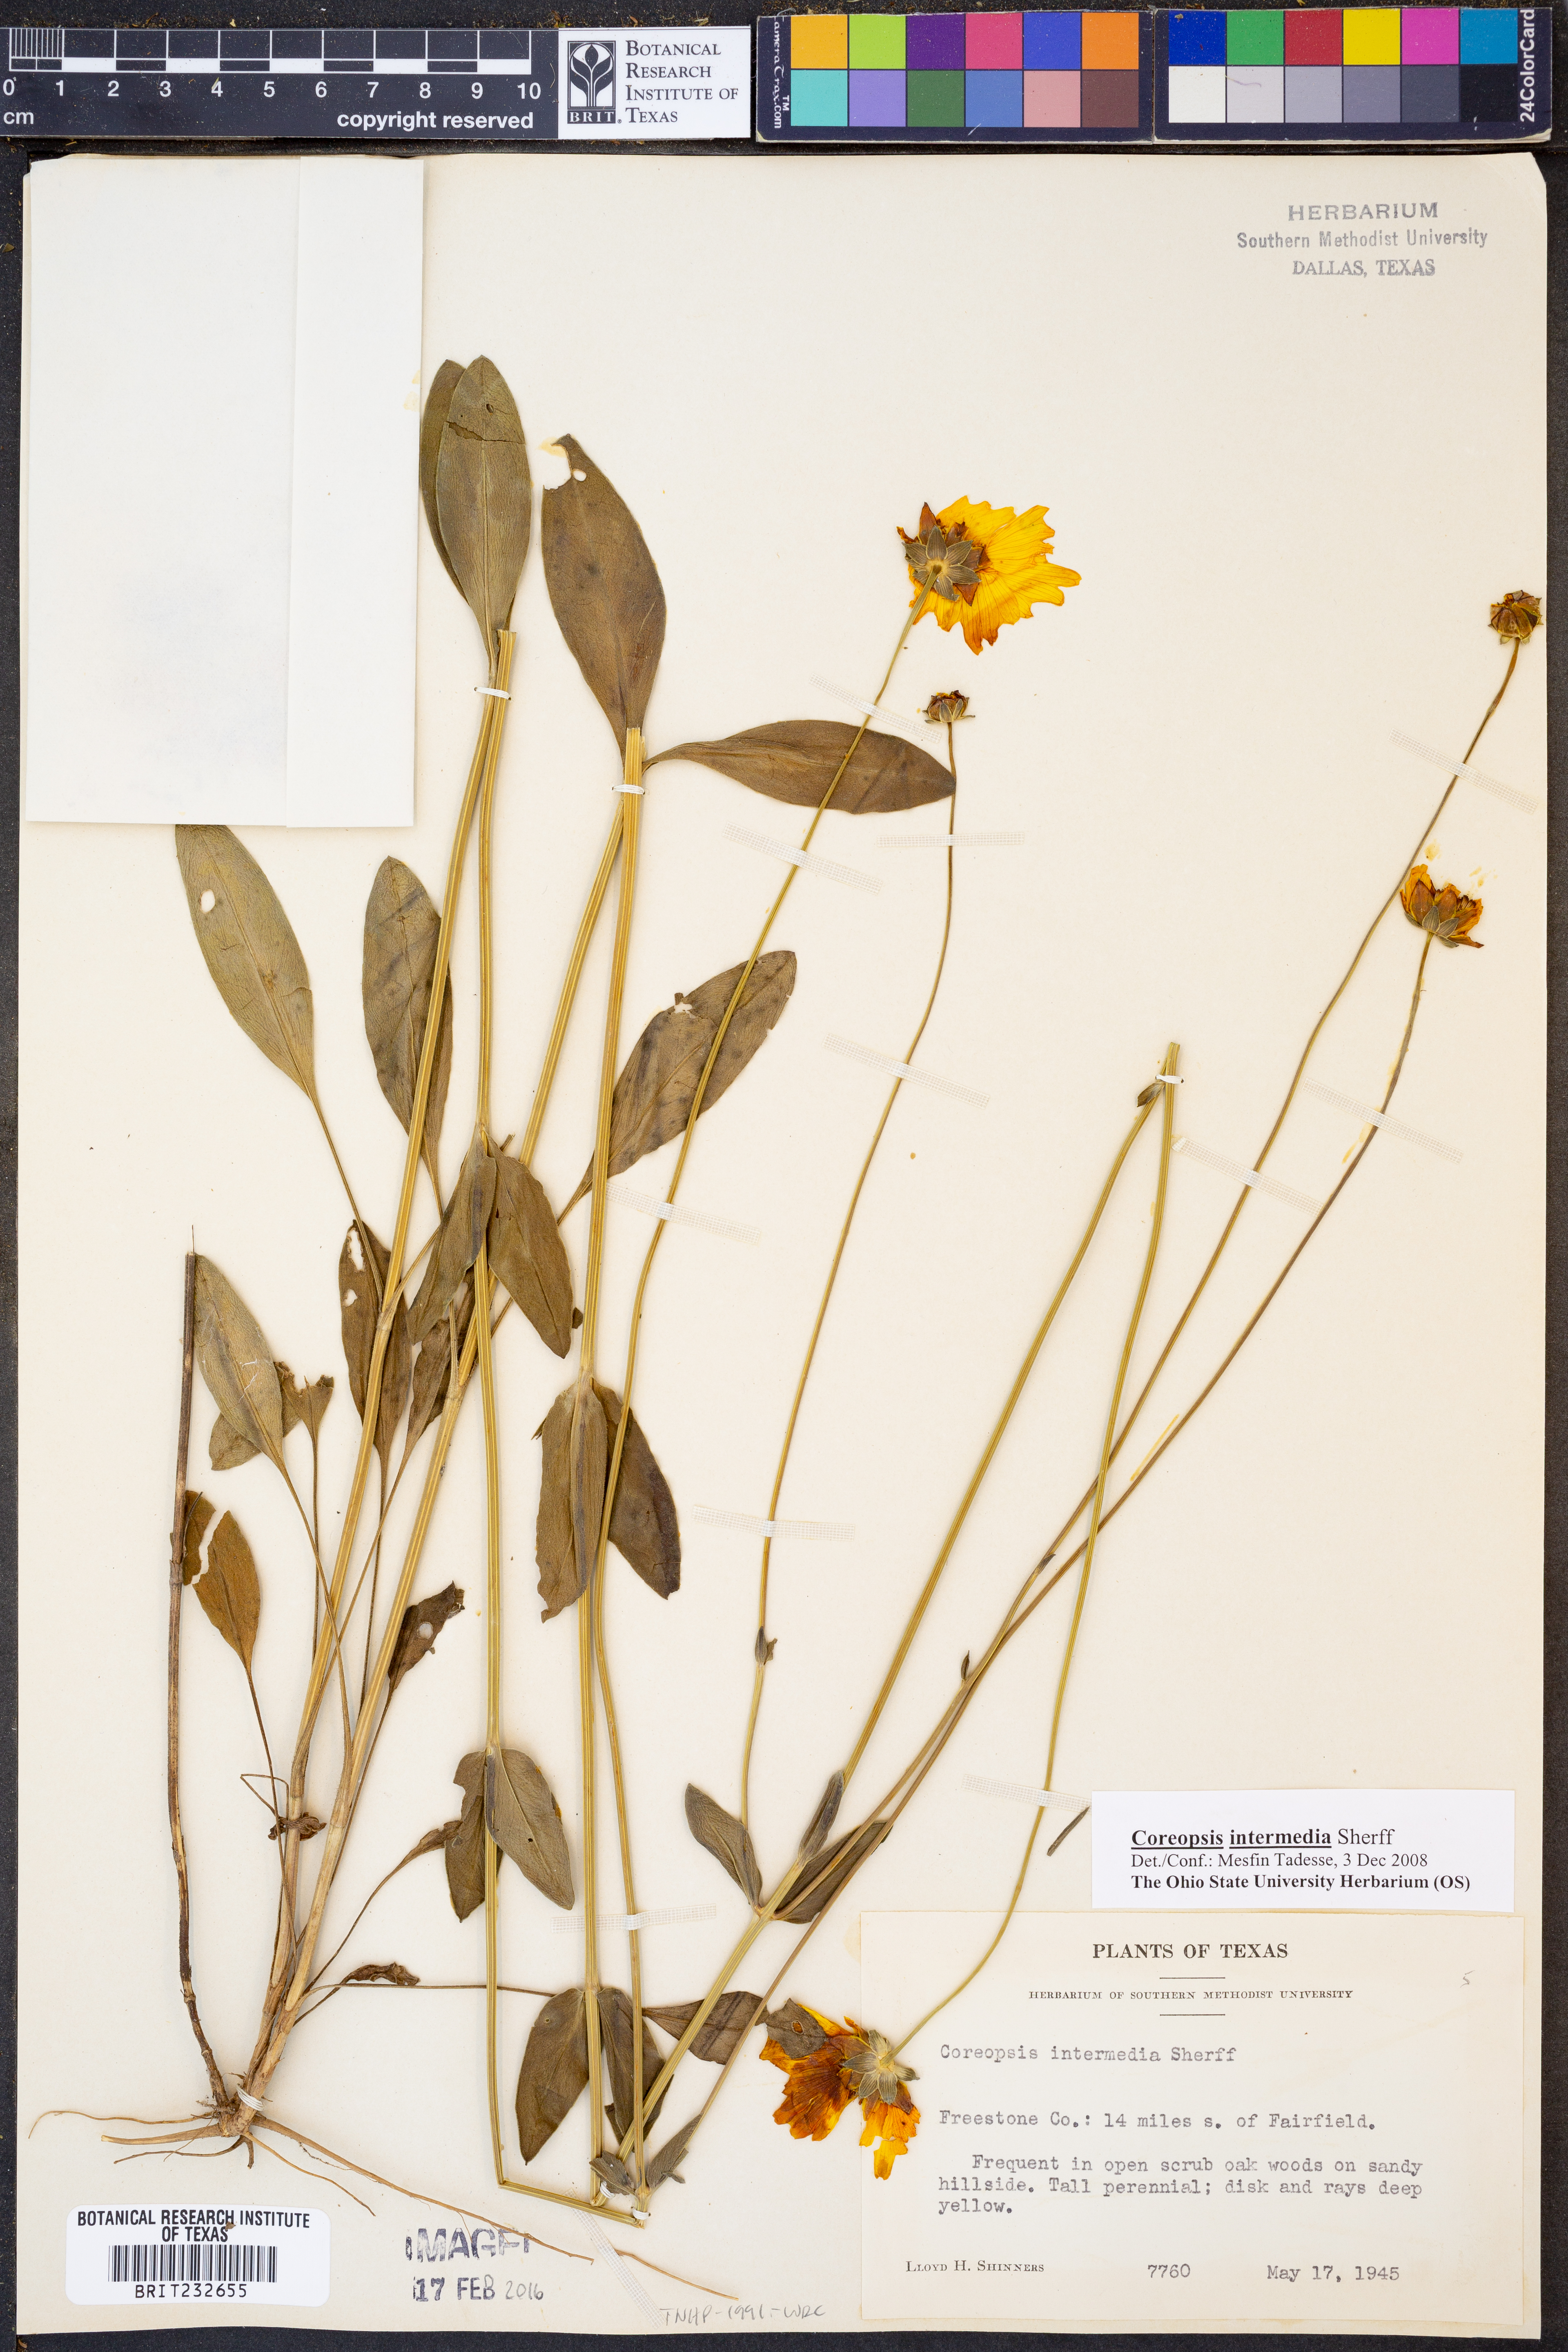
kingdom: Plantae
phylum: Tracheophyta
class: Magnoliopsida
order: Asterales
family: Asteraceae
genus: Coreopsis
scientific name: Coreopsis intermedia
